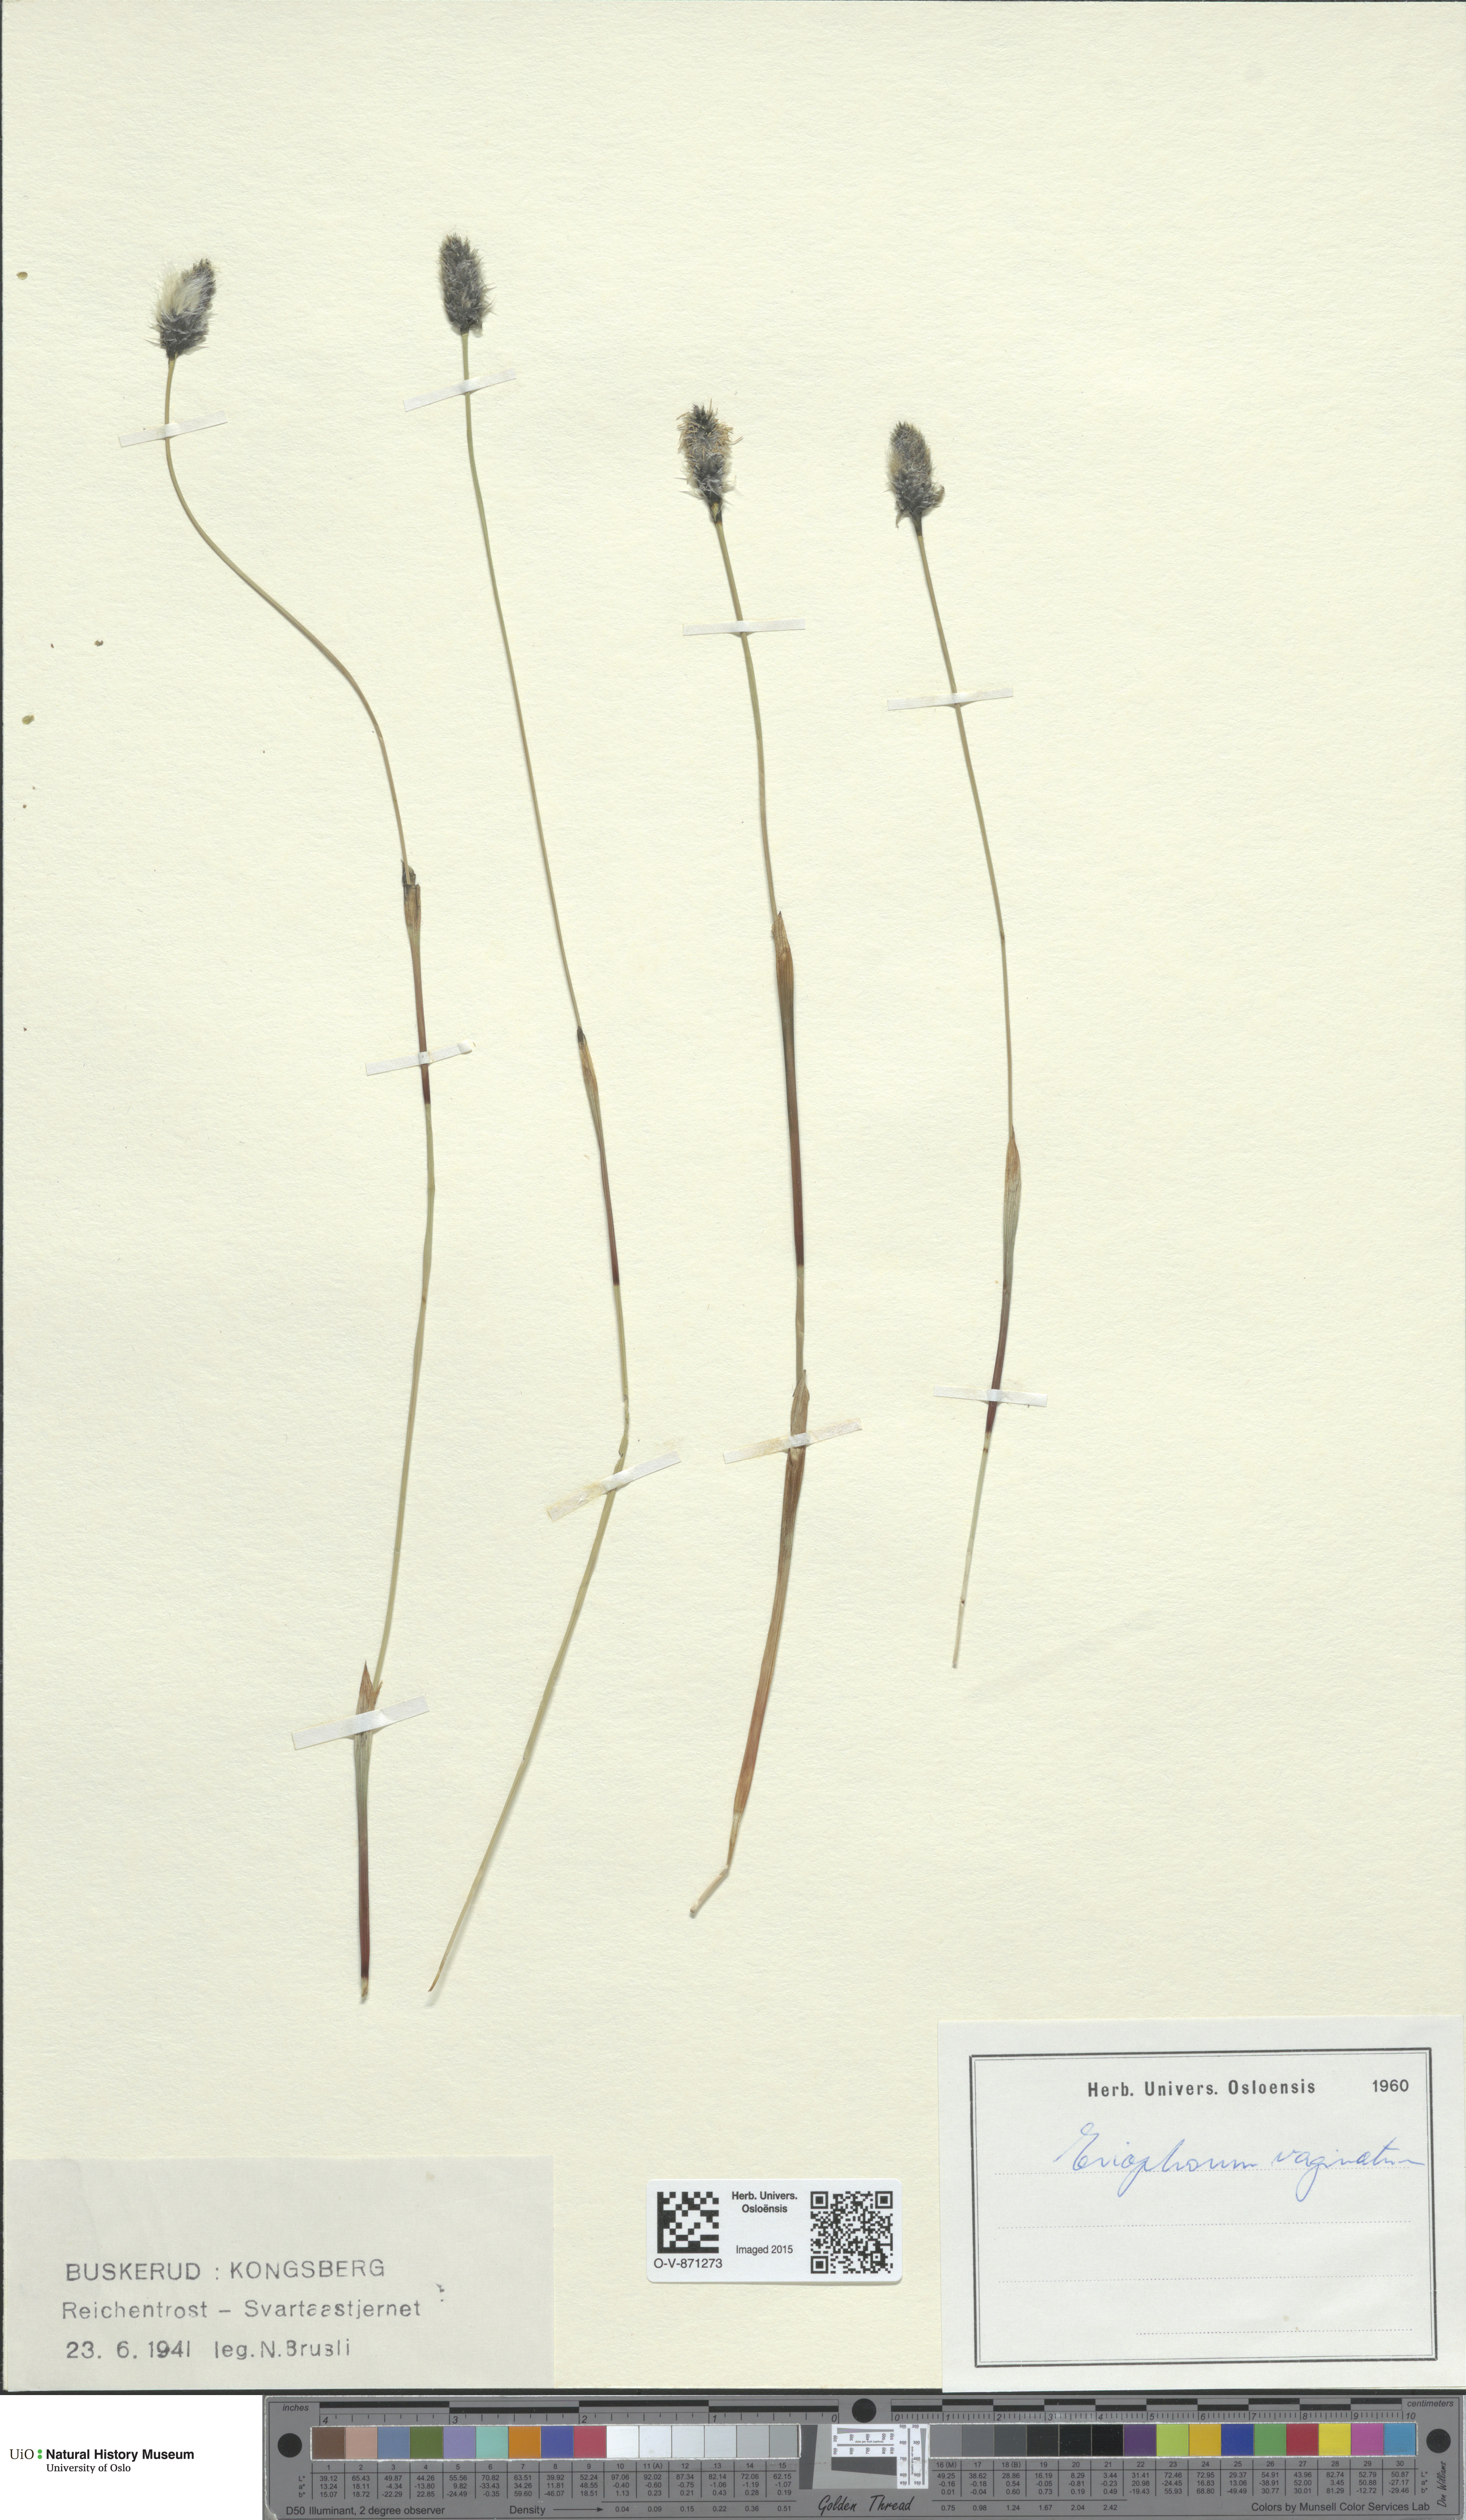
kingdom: Plantae
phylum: Tracheophyta
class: Liliopsida
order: Poales
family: Cyperaceae
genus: Eriophorum
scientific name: Eriophorum vaginatum
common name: Hare's-tail cottongrass
